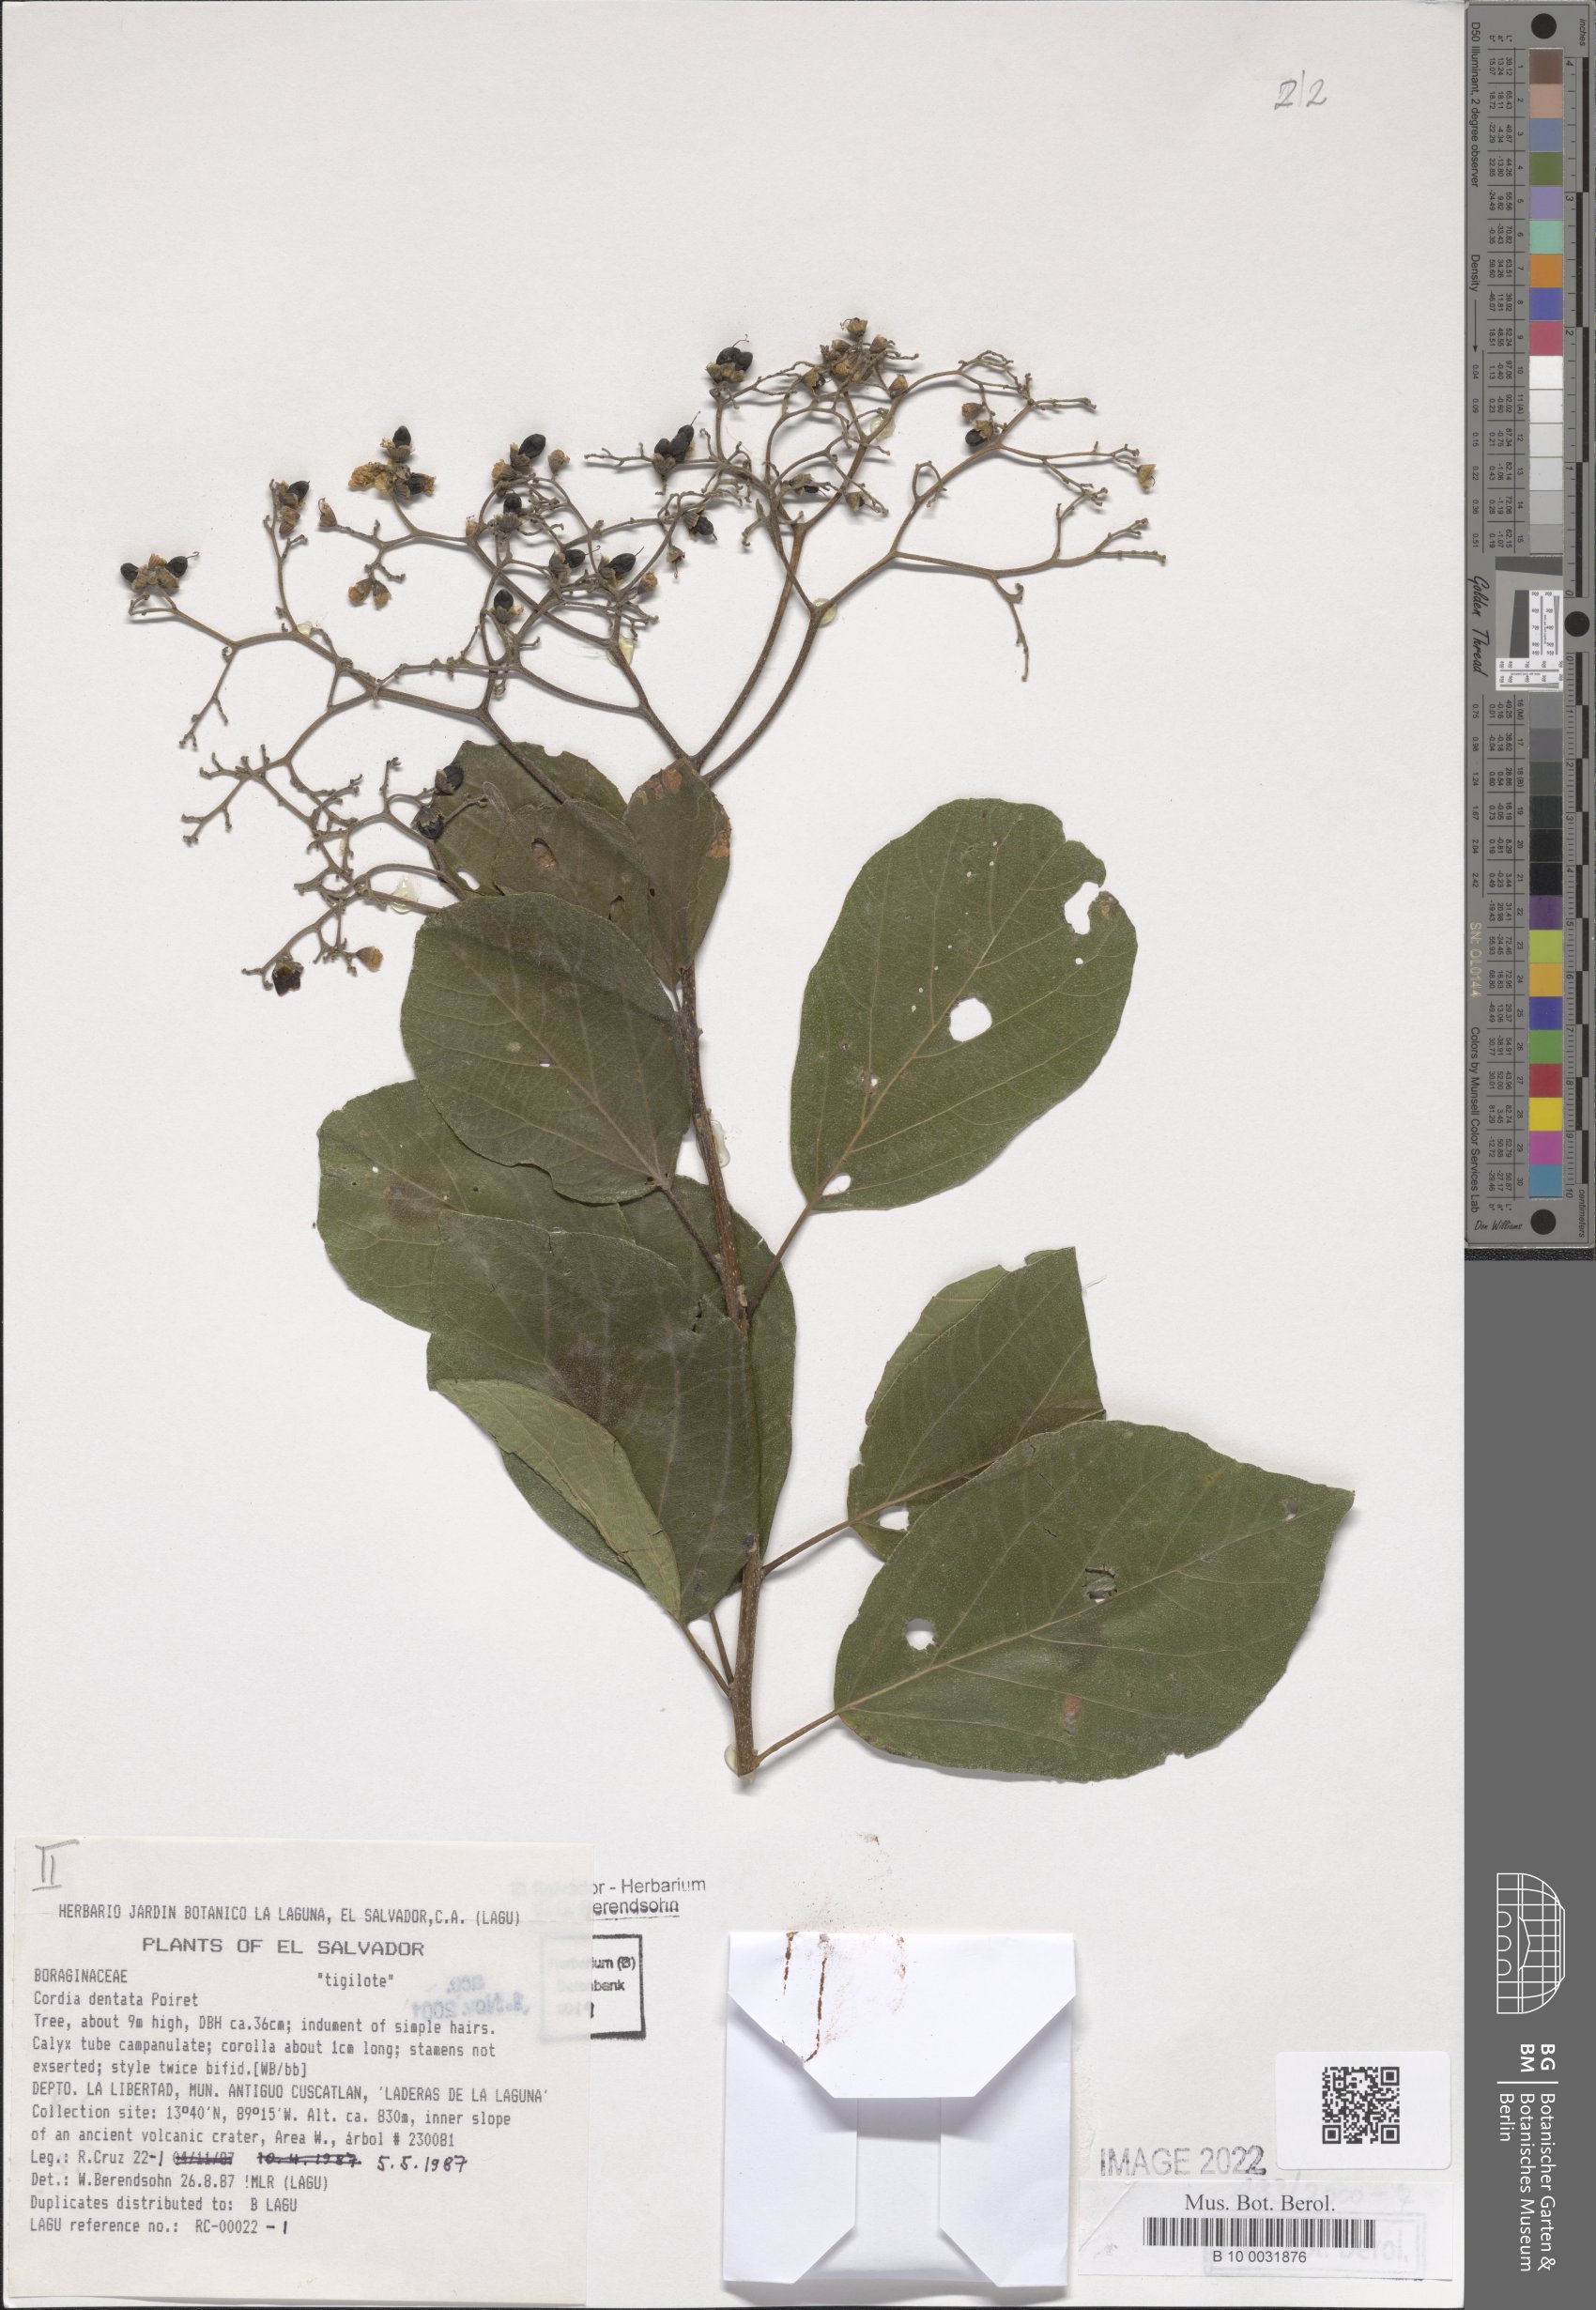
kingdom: Plantae
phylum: Tracheophyta
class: Magnoliopsida
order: Boraginales
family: Cordiaceae
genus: Cordia
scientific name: Cordia dentata
